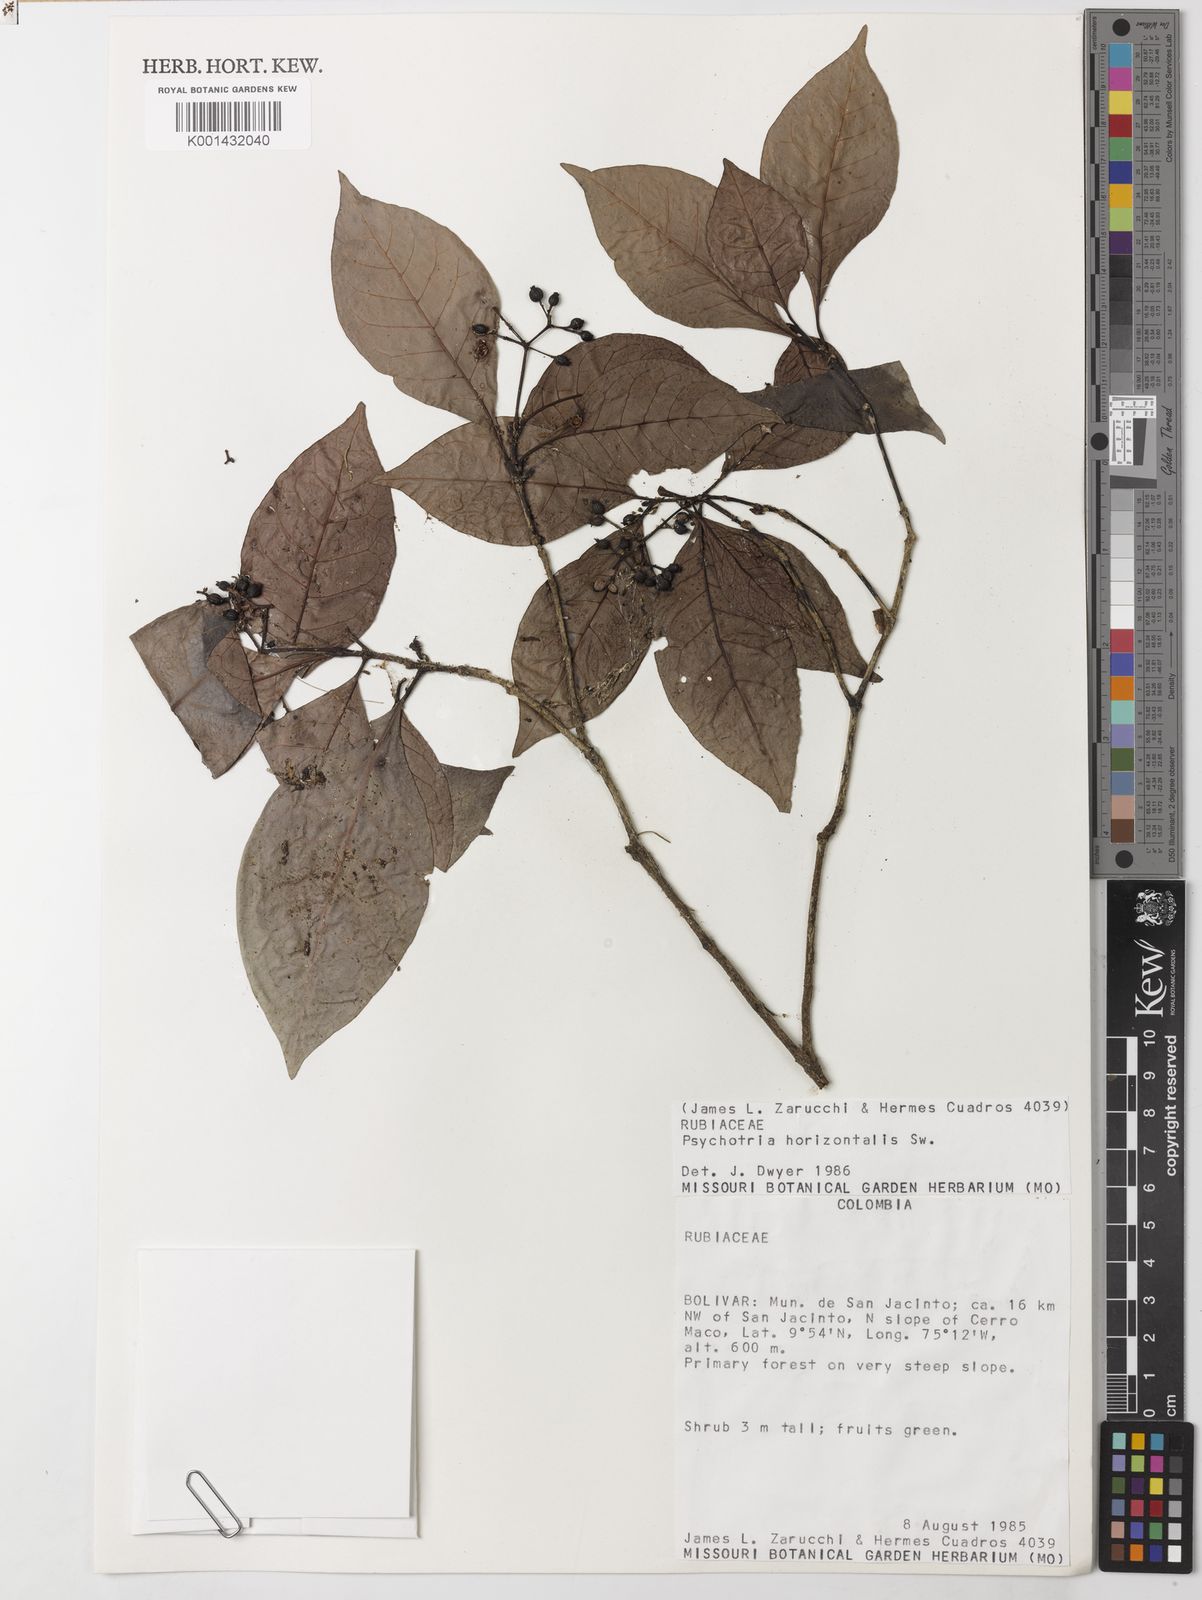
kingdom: Plantae
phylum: Tracheophyta
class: Magnoliopsida
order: Gentianales
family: Rubiaceae
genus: Psychotria
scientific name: Psychotria horizontalis
